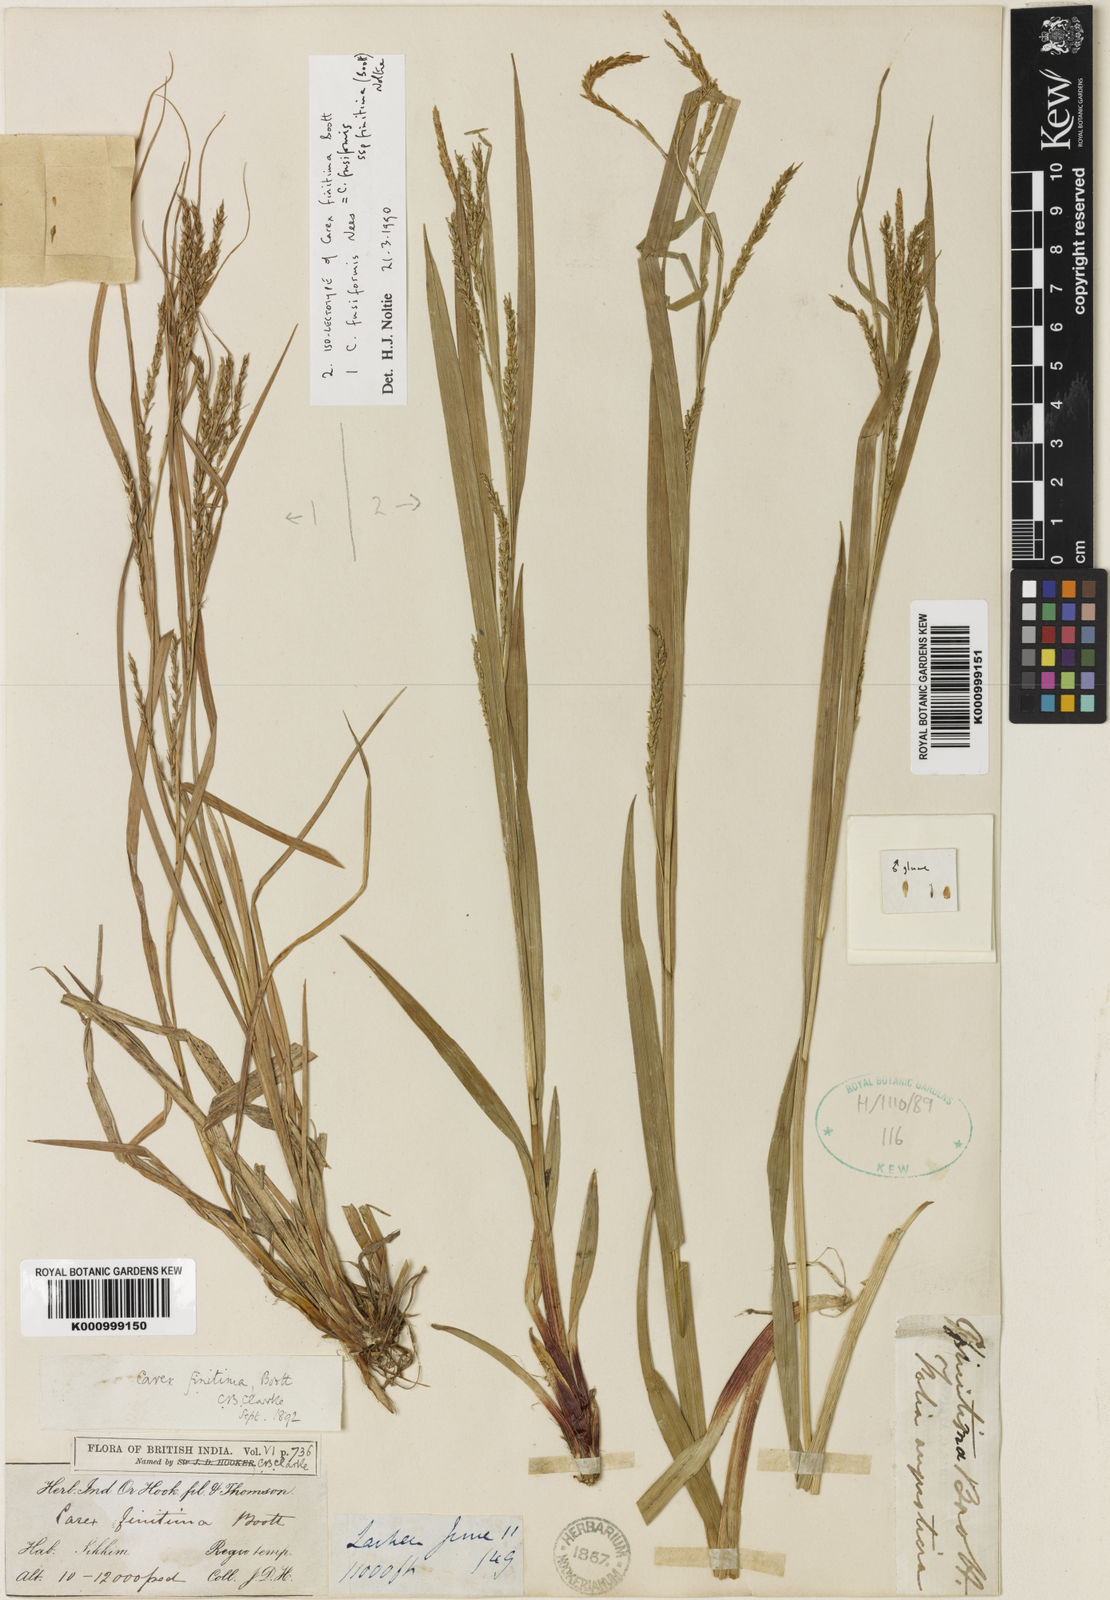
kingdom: Plantae
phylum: Tracheophyta
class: Liliopsida
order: Poales
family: Cyperaceae
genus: Carex
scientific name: Carex finitima
